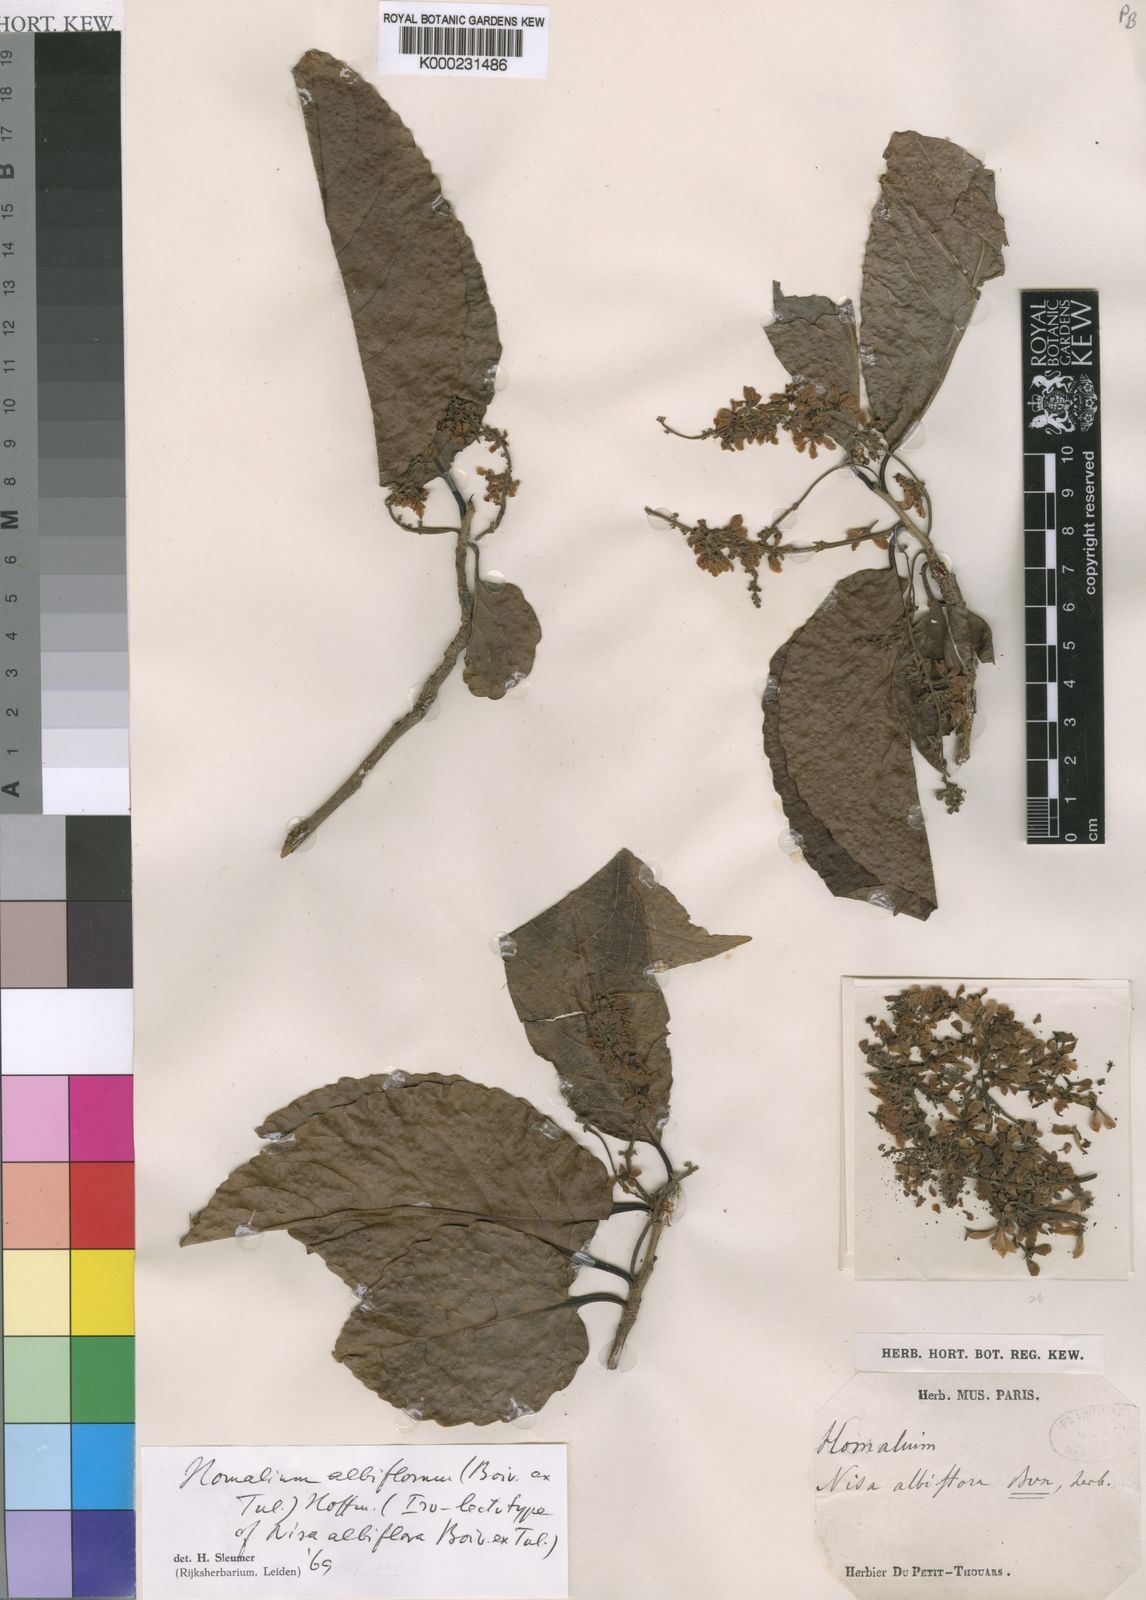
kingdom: Plantae
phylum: Tracheophyta
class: Magnoliopsida
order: Malpighiales
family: Salicaceae
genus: Homalium
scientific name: Homalium albiflorum
